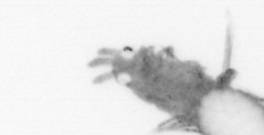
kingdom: Animalia
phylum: Annelida
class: Polychaeta
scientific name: Polychaeta
